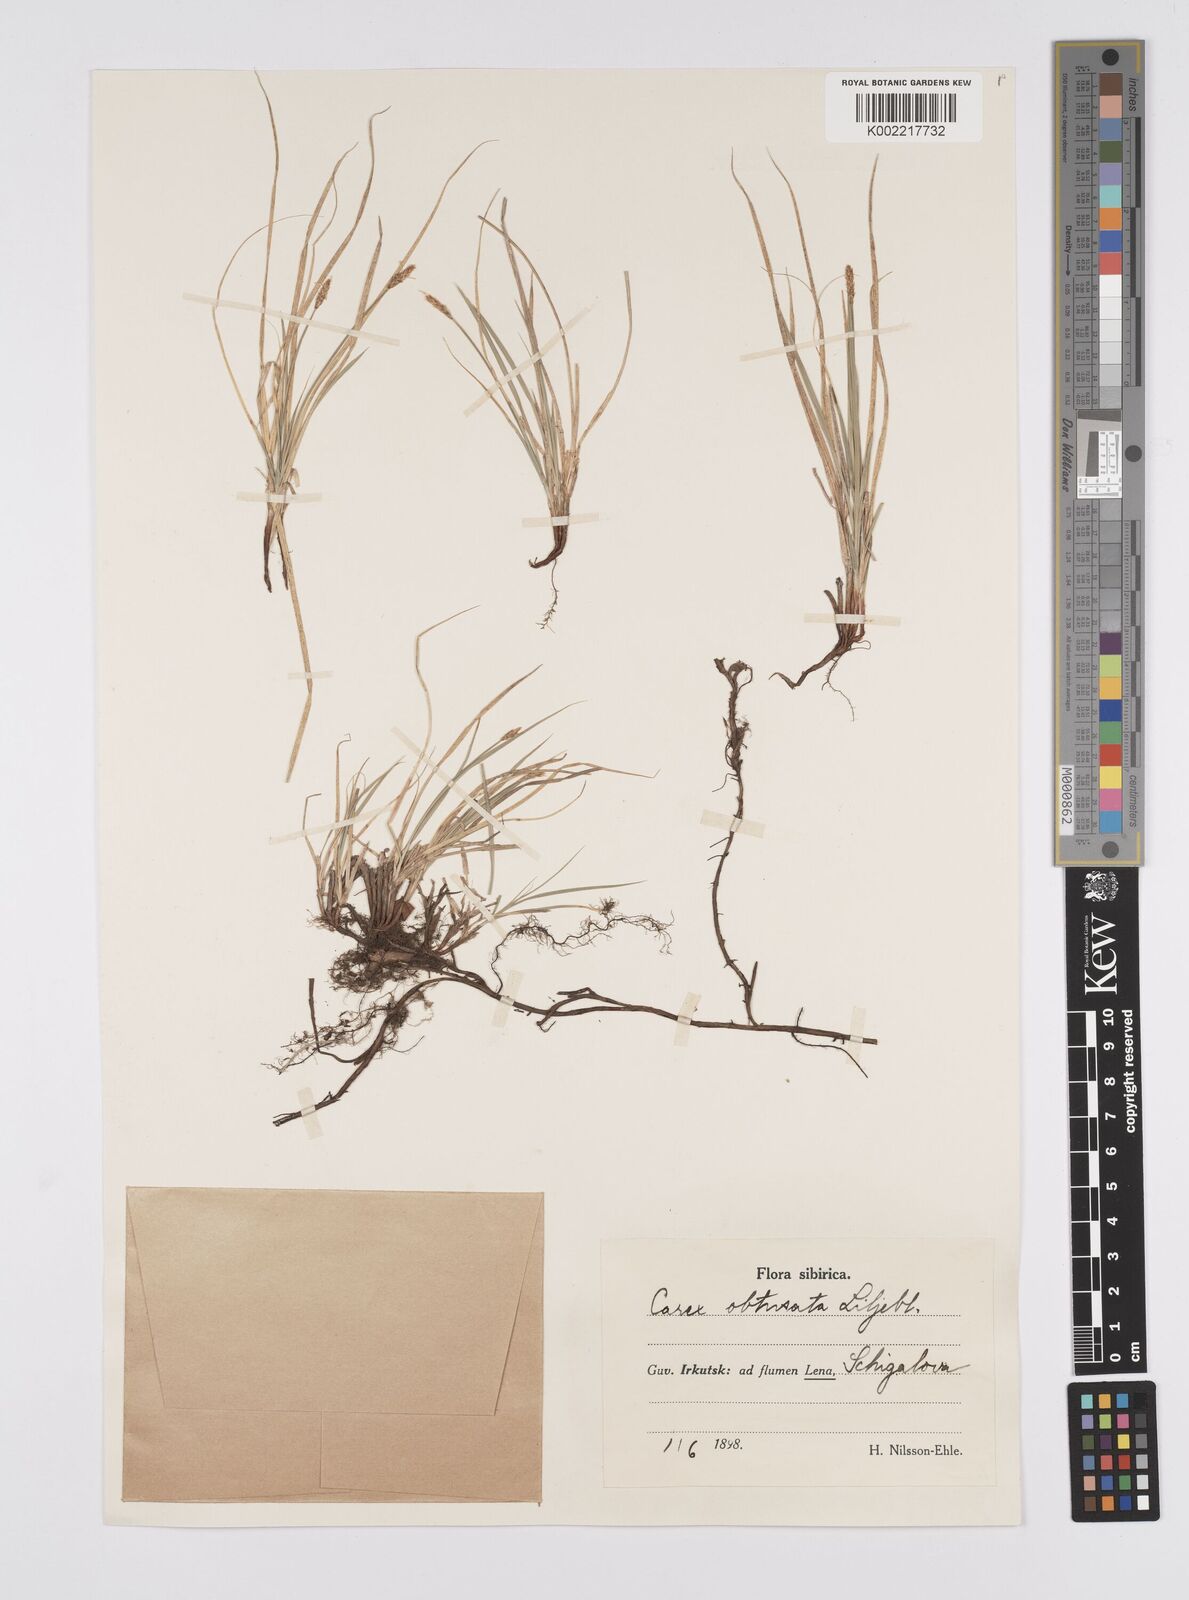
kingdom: Plantae
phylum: Tracheophyta
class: Liliopsida
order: Poales
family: Cyperaceae
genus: Carex
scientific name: Carex obtusata
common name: Blunt sedge
